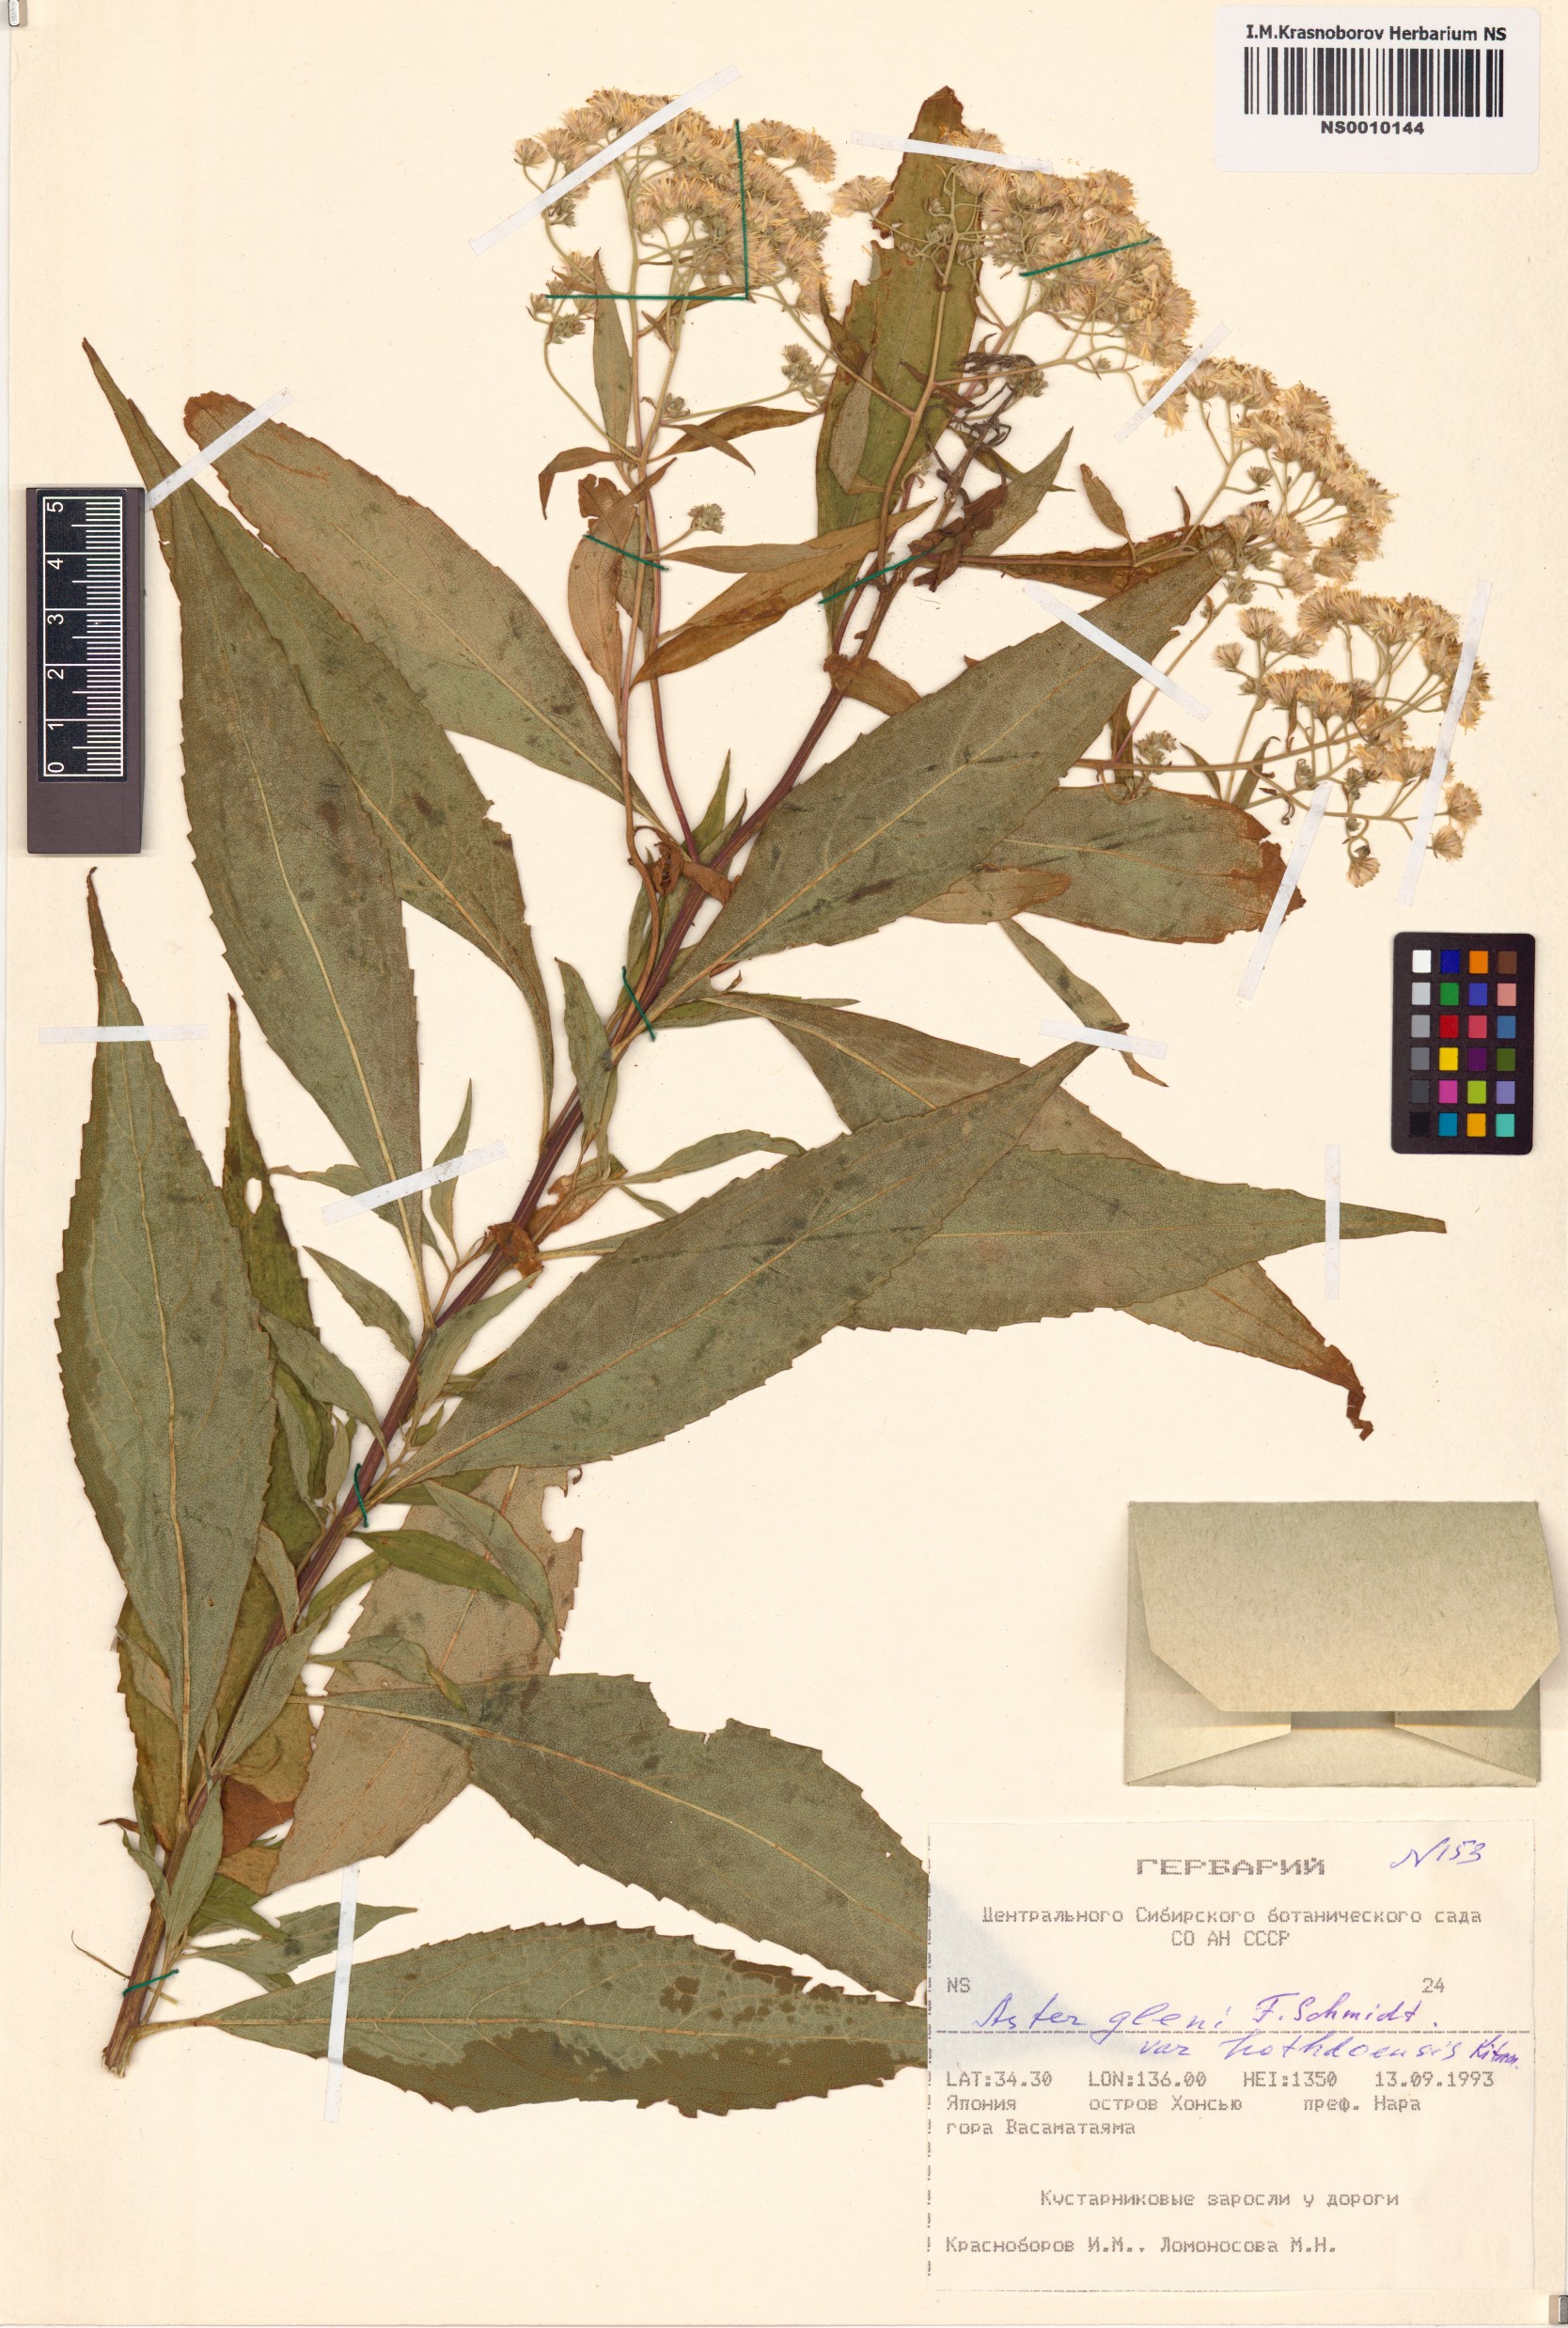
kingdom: Plantae
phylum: Tracheophyta
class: Magnoliopsida
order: Asterales
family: Asteraceae
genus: Kitamuria
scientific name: Kitamuria glehnii
